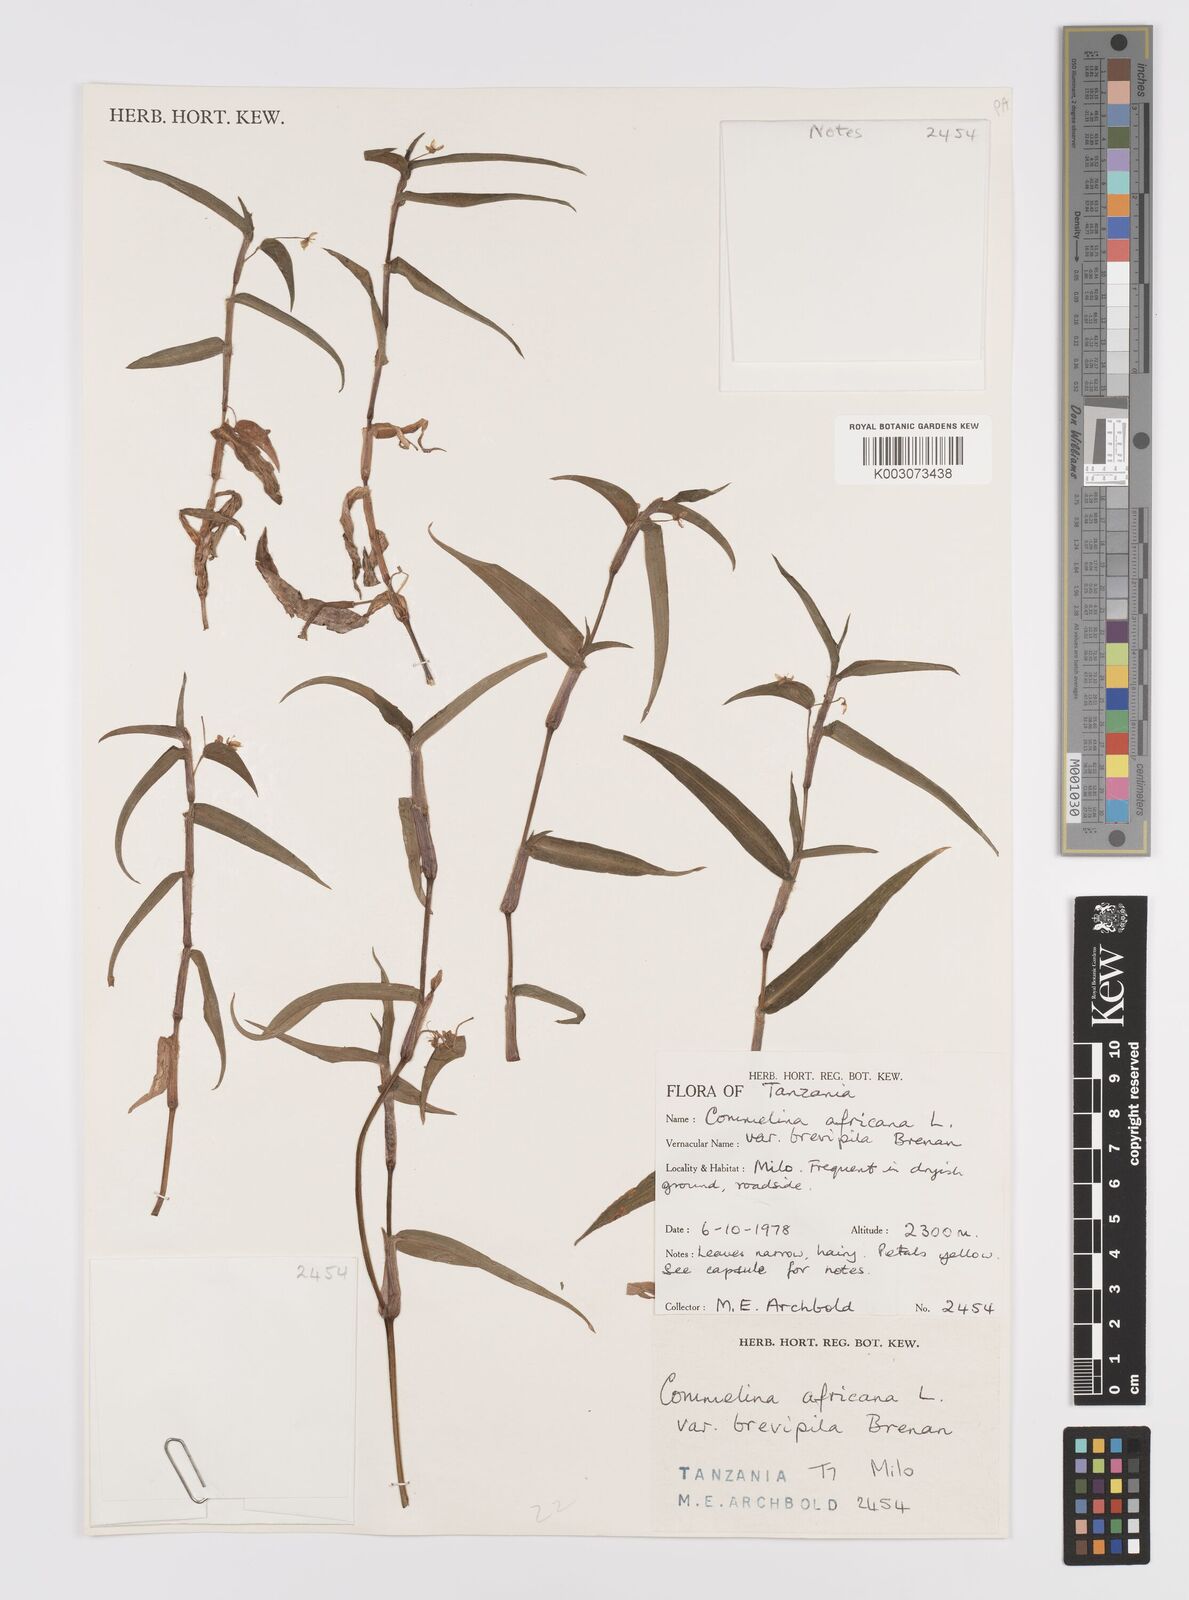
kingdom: Plantae
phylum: Tracheophyta
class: Liliopsida
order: Commelinales
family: Commelinaceae
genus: Commelina
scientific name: Commelina africana
